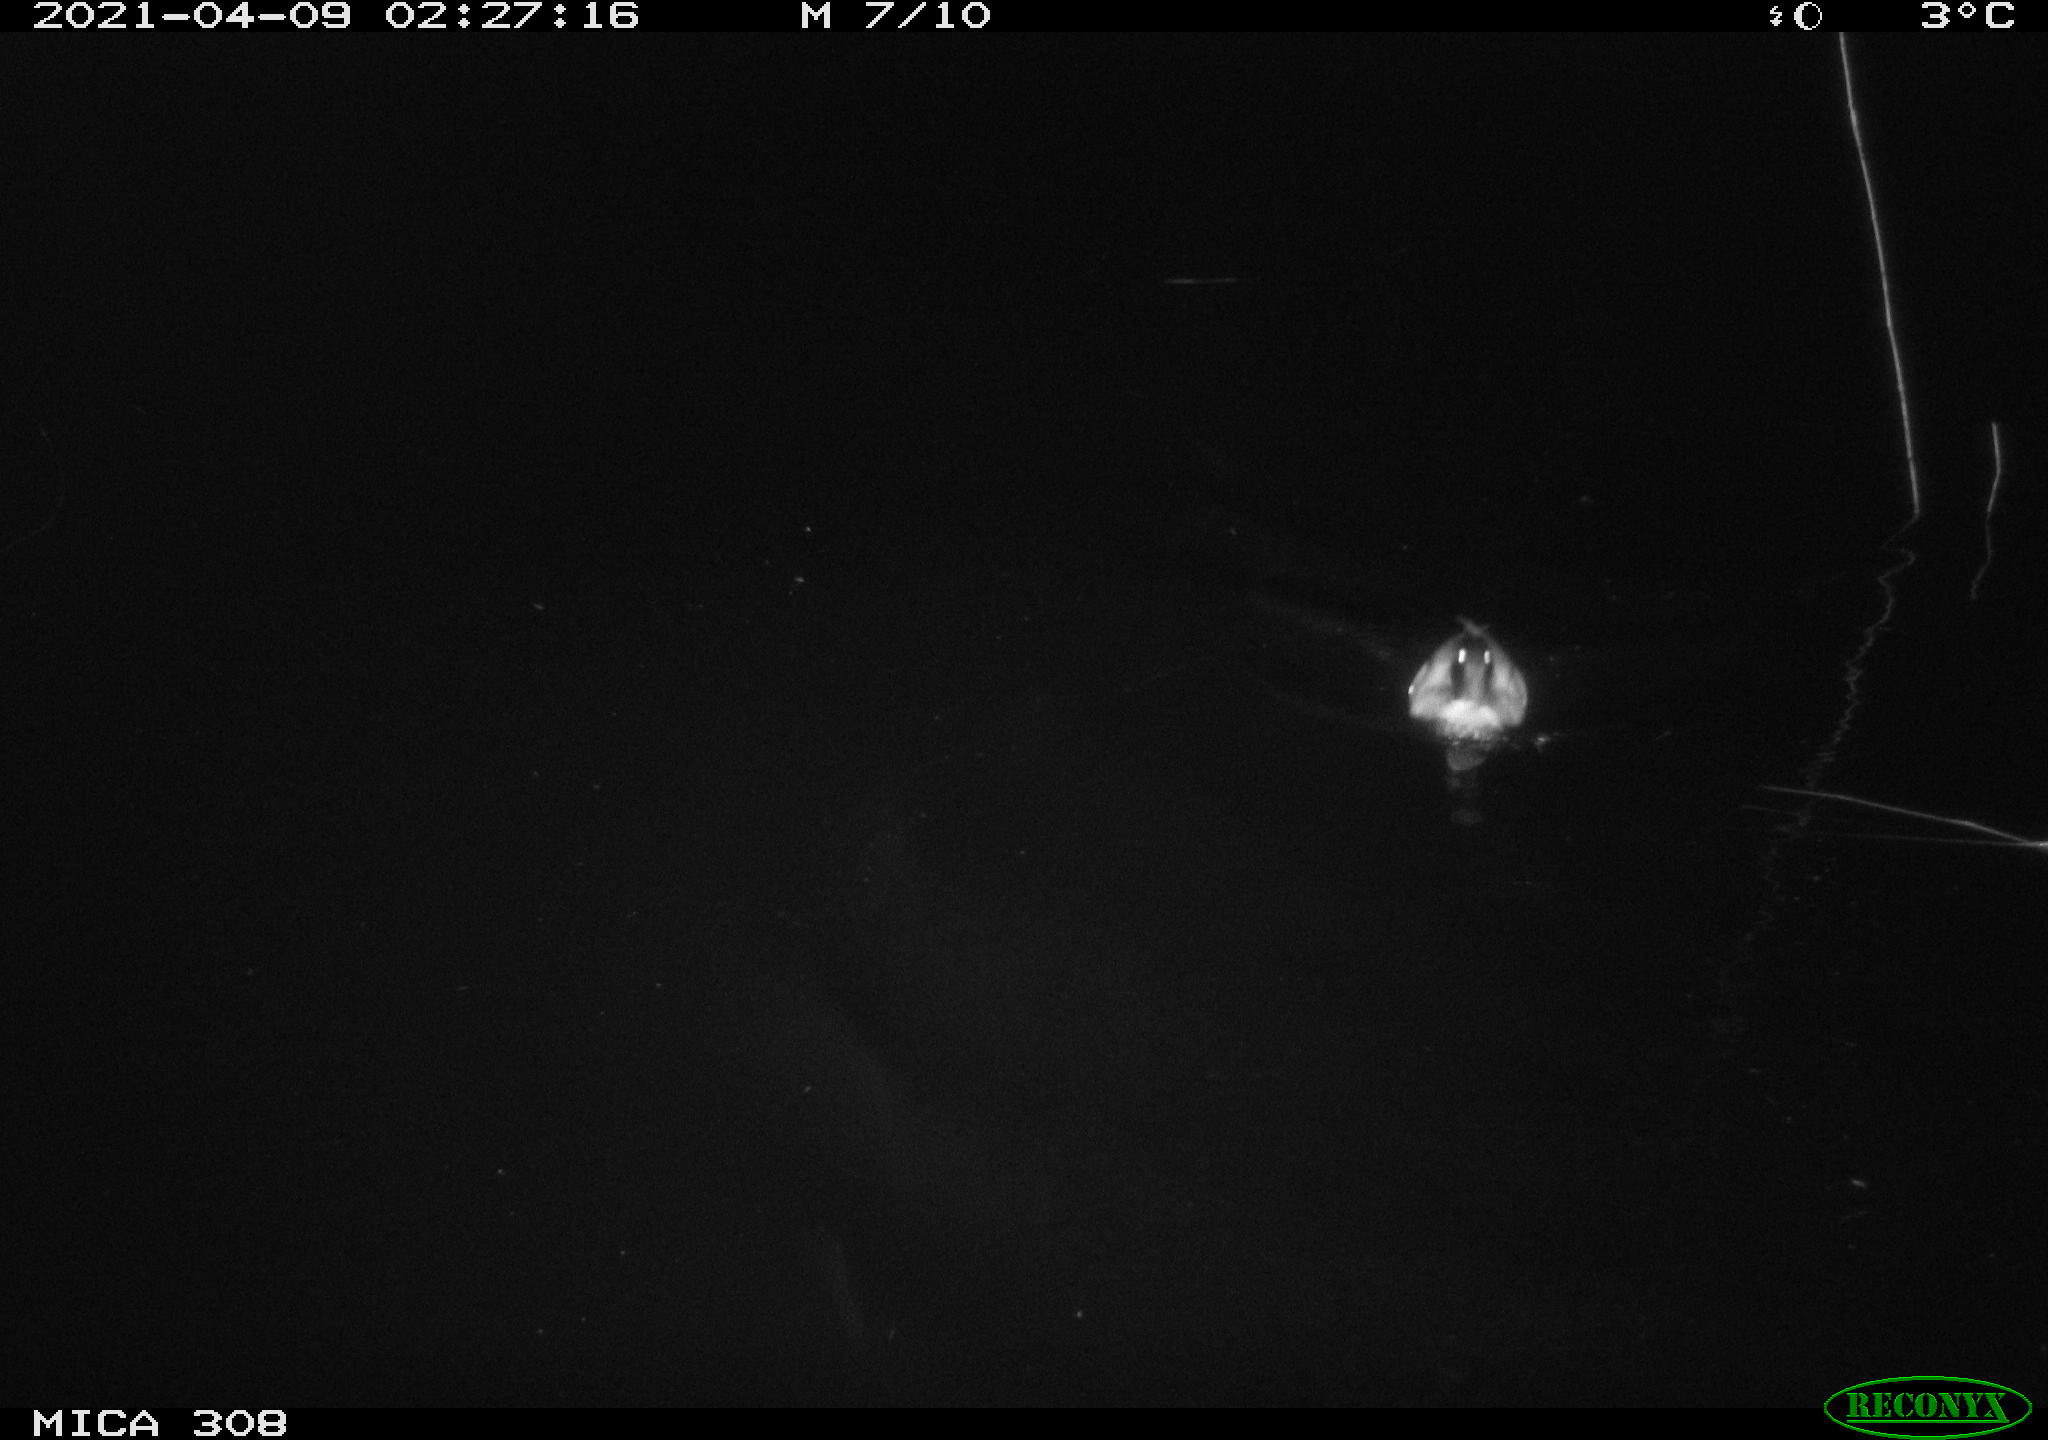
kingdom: Animalia
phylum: Chordata
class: Aves
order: Anseriformes
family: Anatidae
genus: Anas
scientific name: Anas platyrhynchos
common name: Mallard
